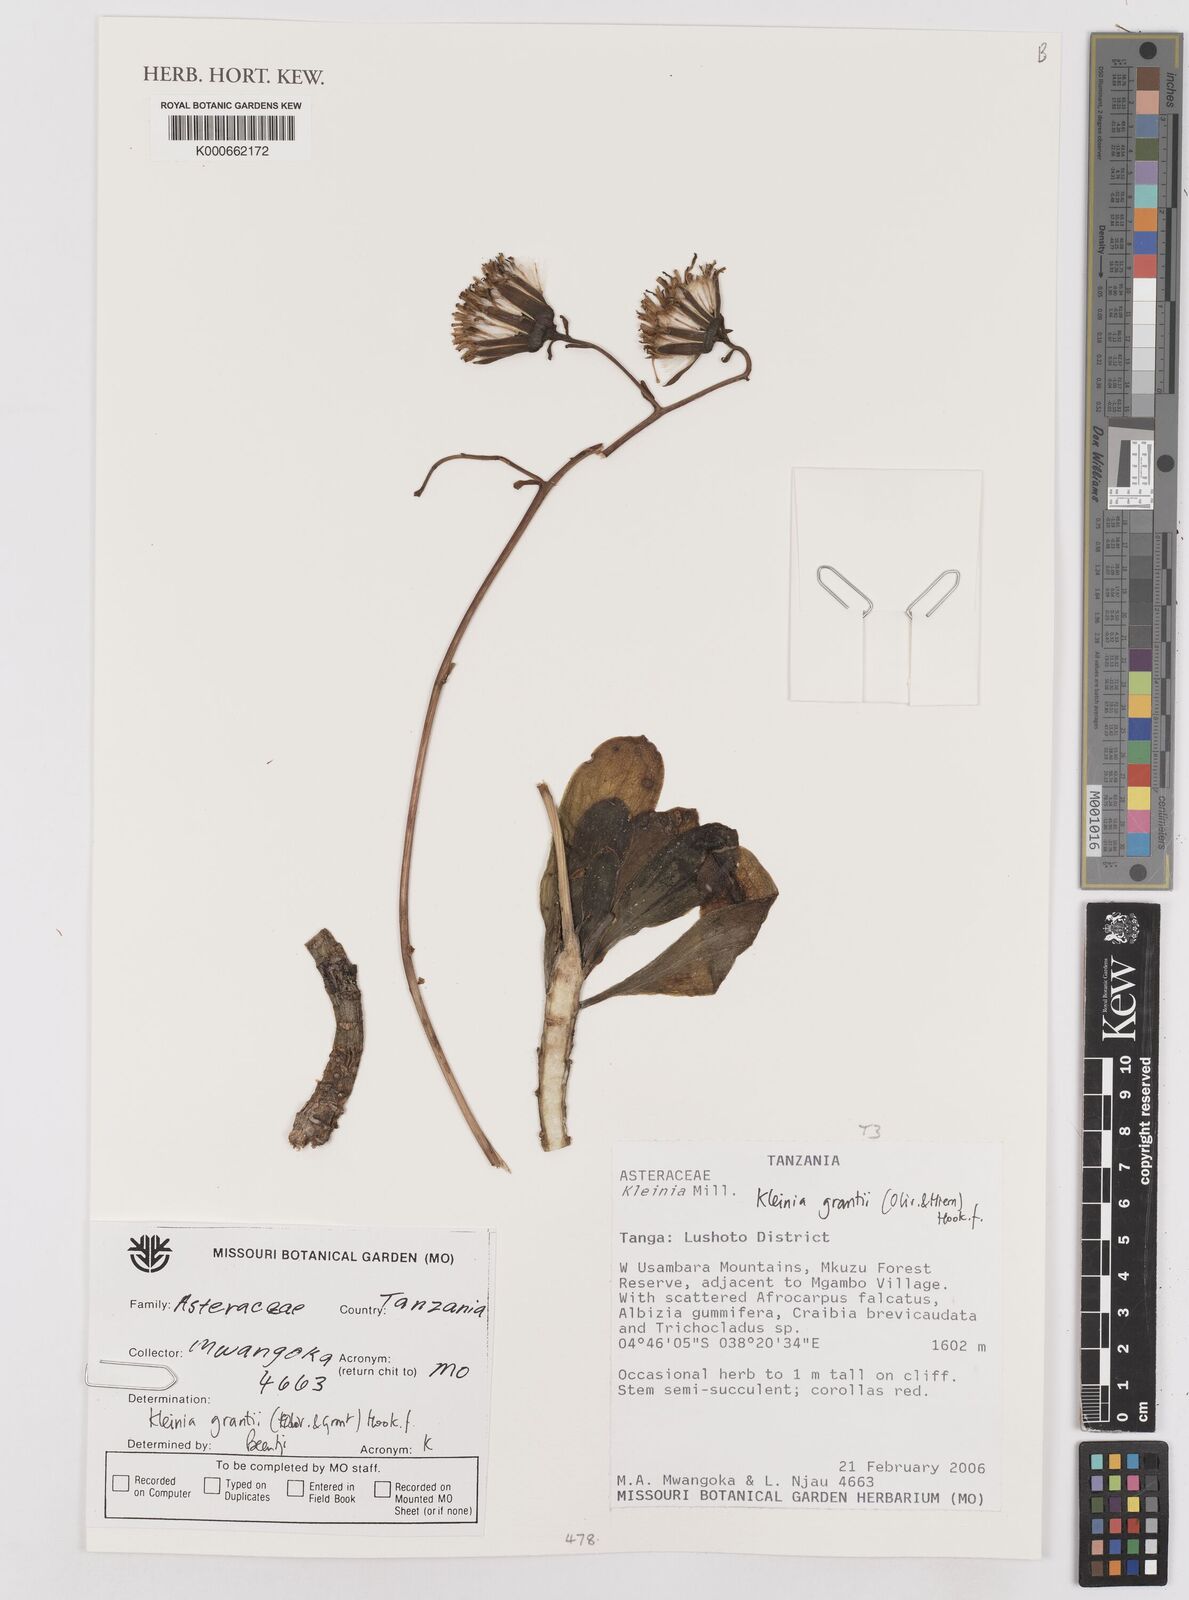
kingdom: Plantae
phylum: Tracheophyta
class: Magnoliopsida
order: Asterales
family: Asteraceae
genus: Kleinia
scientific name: Kleinia grantii
